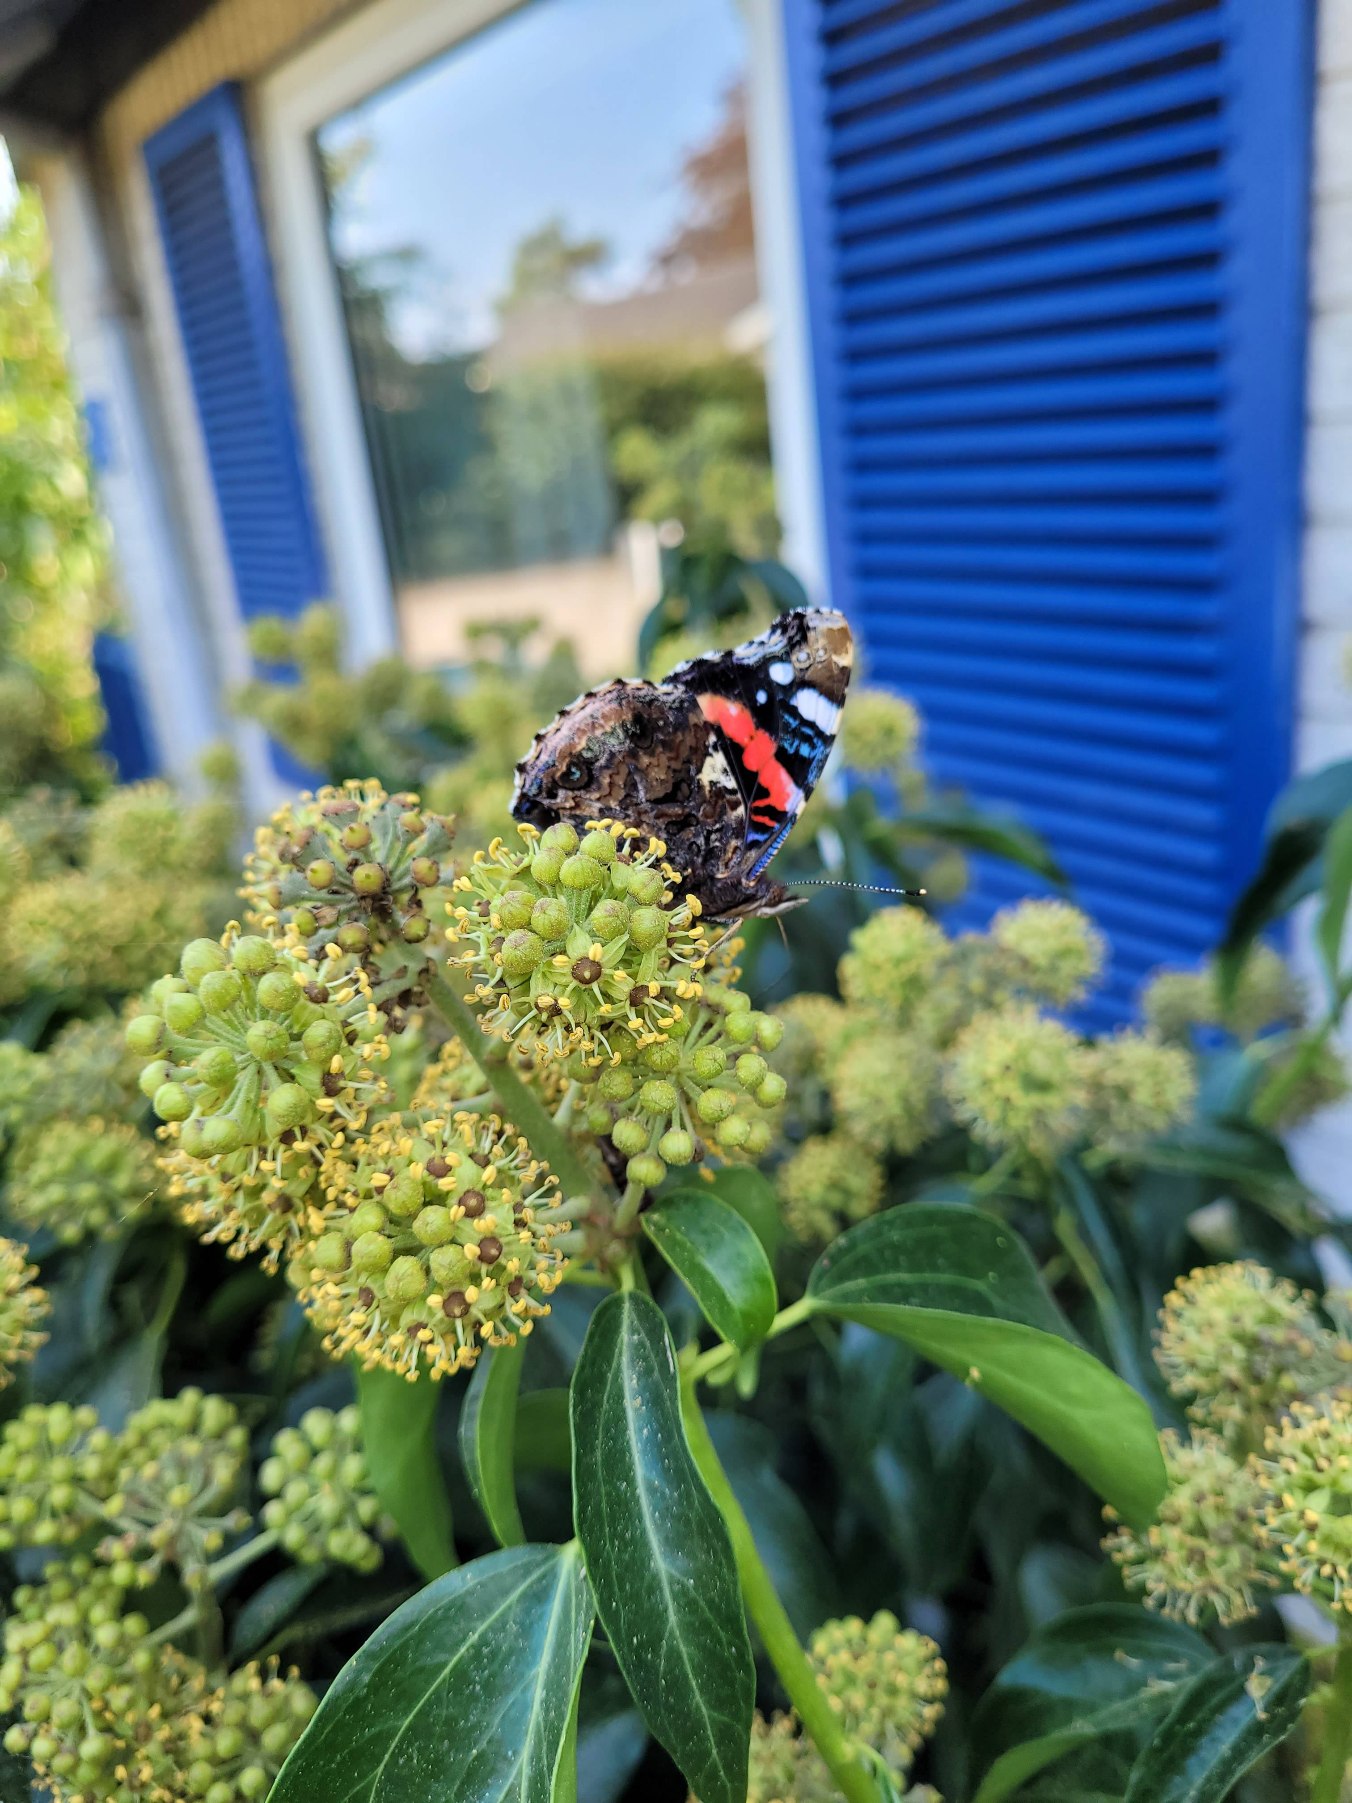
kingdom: Animalia
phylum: Arthropoda
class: Insecta
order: Lepidoptera
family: Nymphalidae
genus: Vanessa
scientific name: Vanessa atalanta
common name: Admiral
